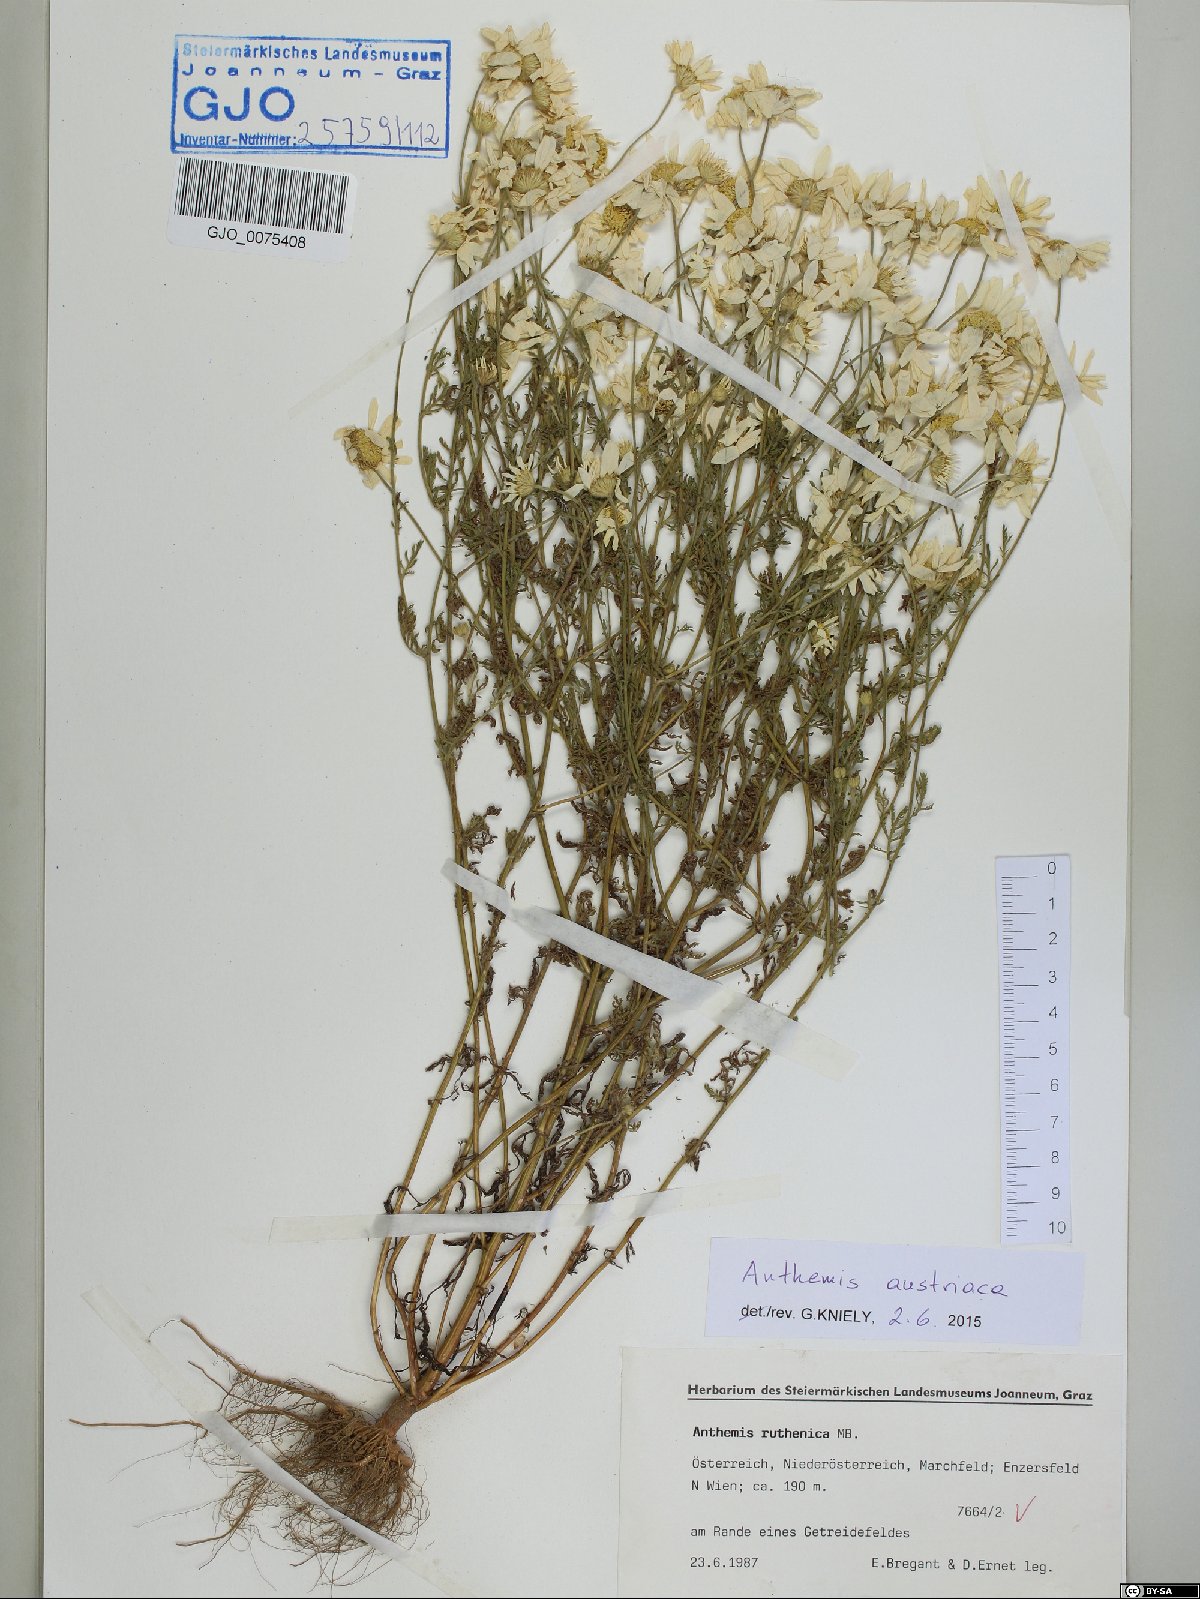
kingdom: Plantae
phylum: Tracheophyta
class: Magnoliopsida
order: Asterales
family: Asteraceae
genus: Cota
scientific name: Cota austriaca
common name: Austrian chamomile
